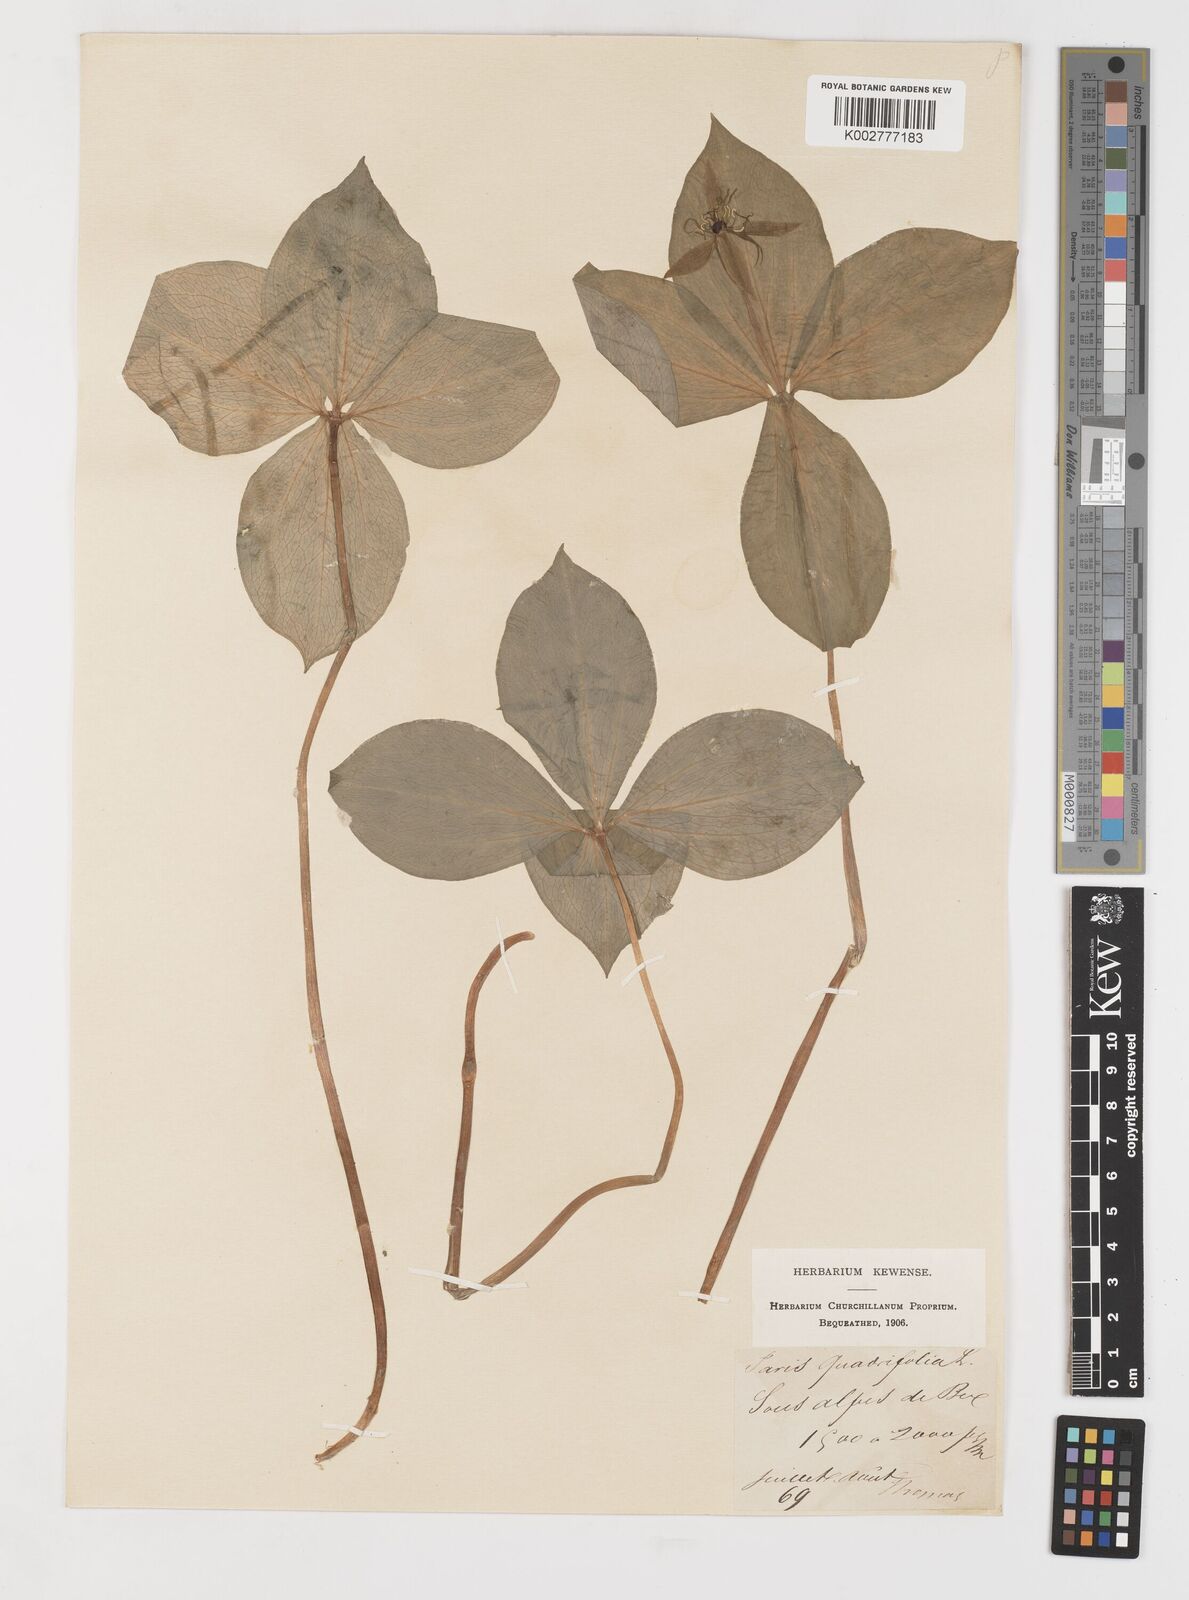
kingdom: Plantae
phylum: Tracheophyta
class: Liliopsida
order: Liliales
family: Melanthiaceae
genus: Paris
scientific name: Paris quadrifolia
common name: Herb-paris
